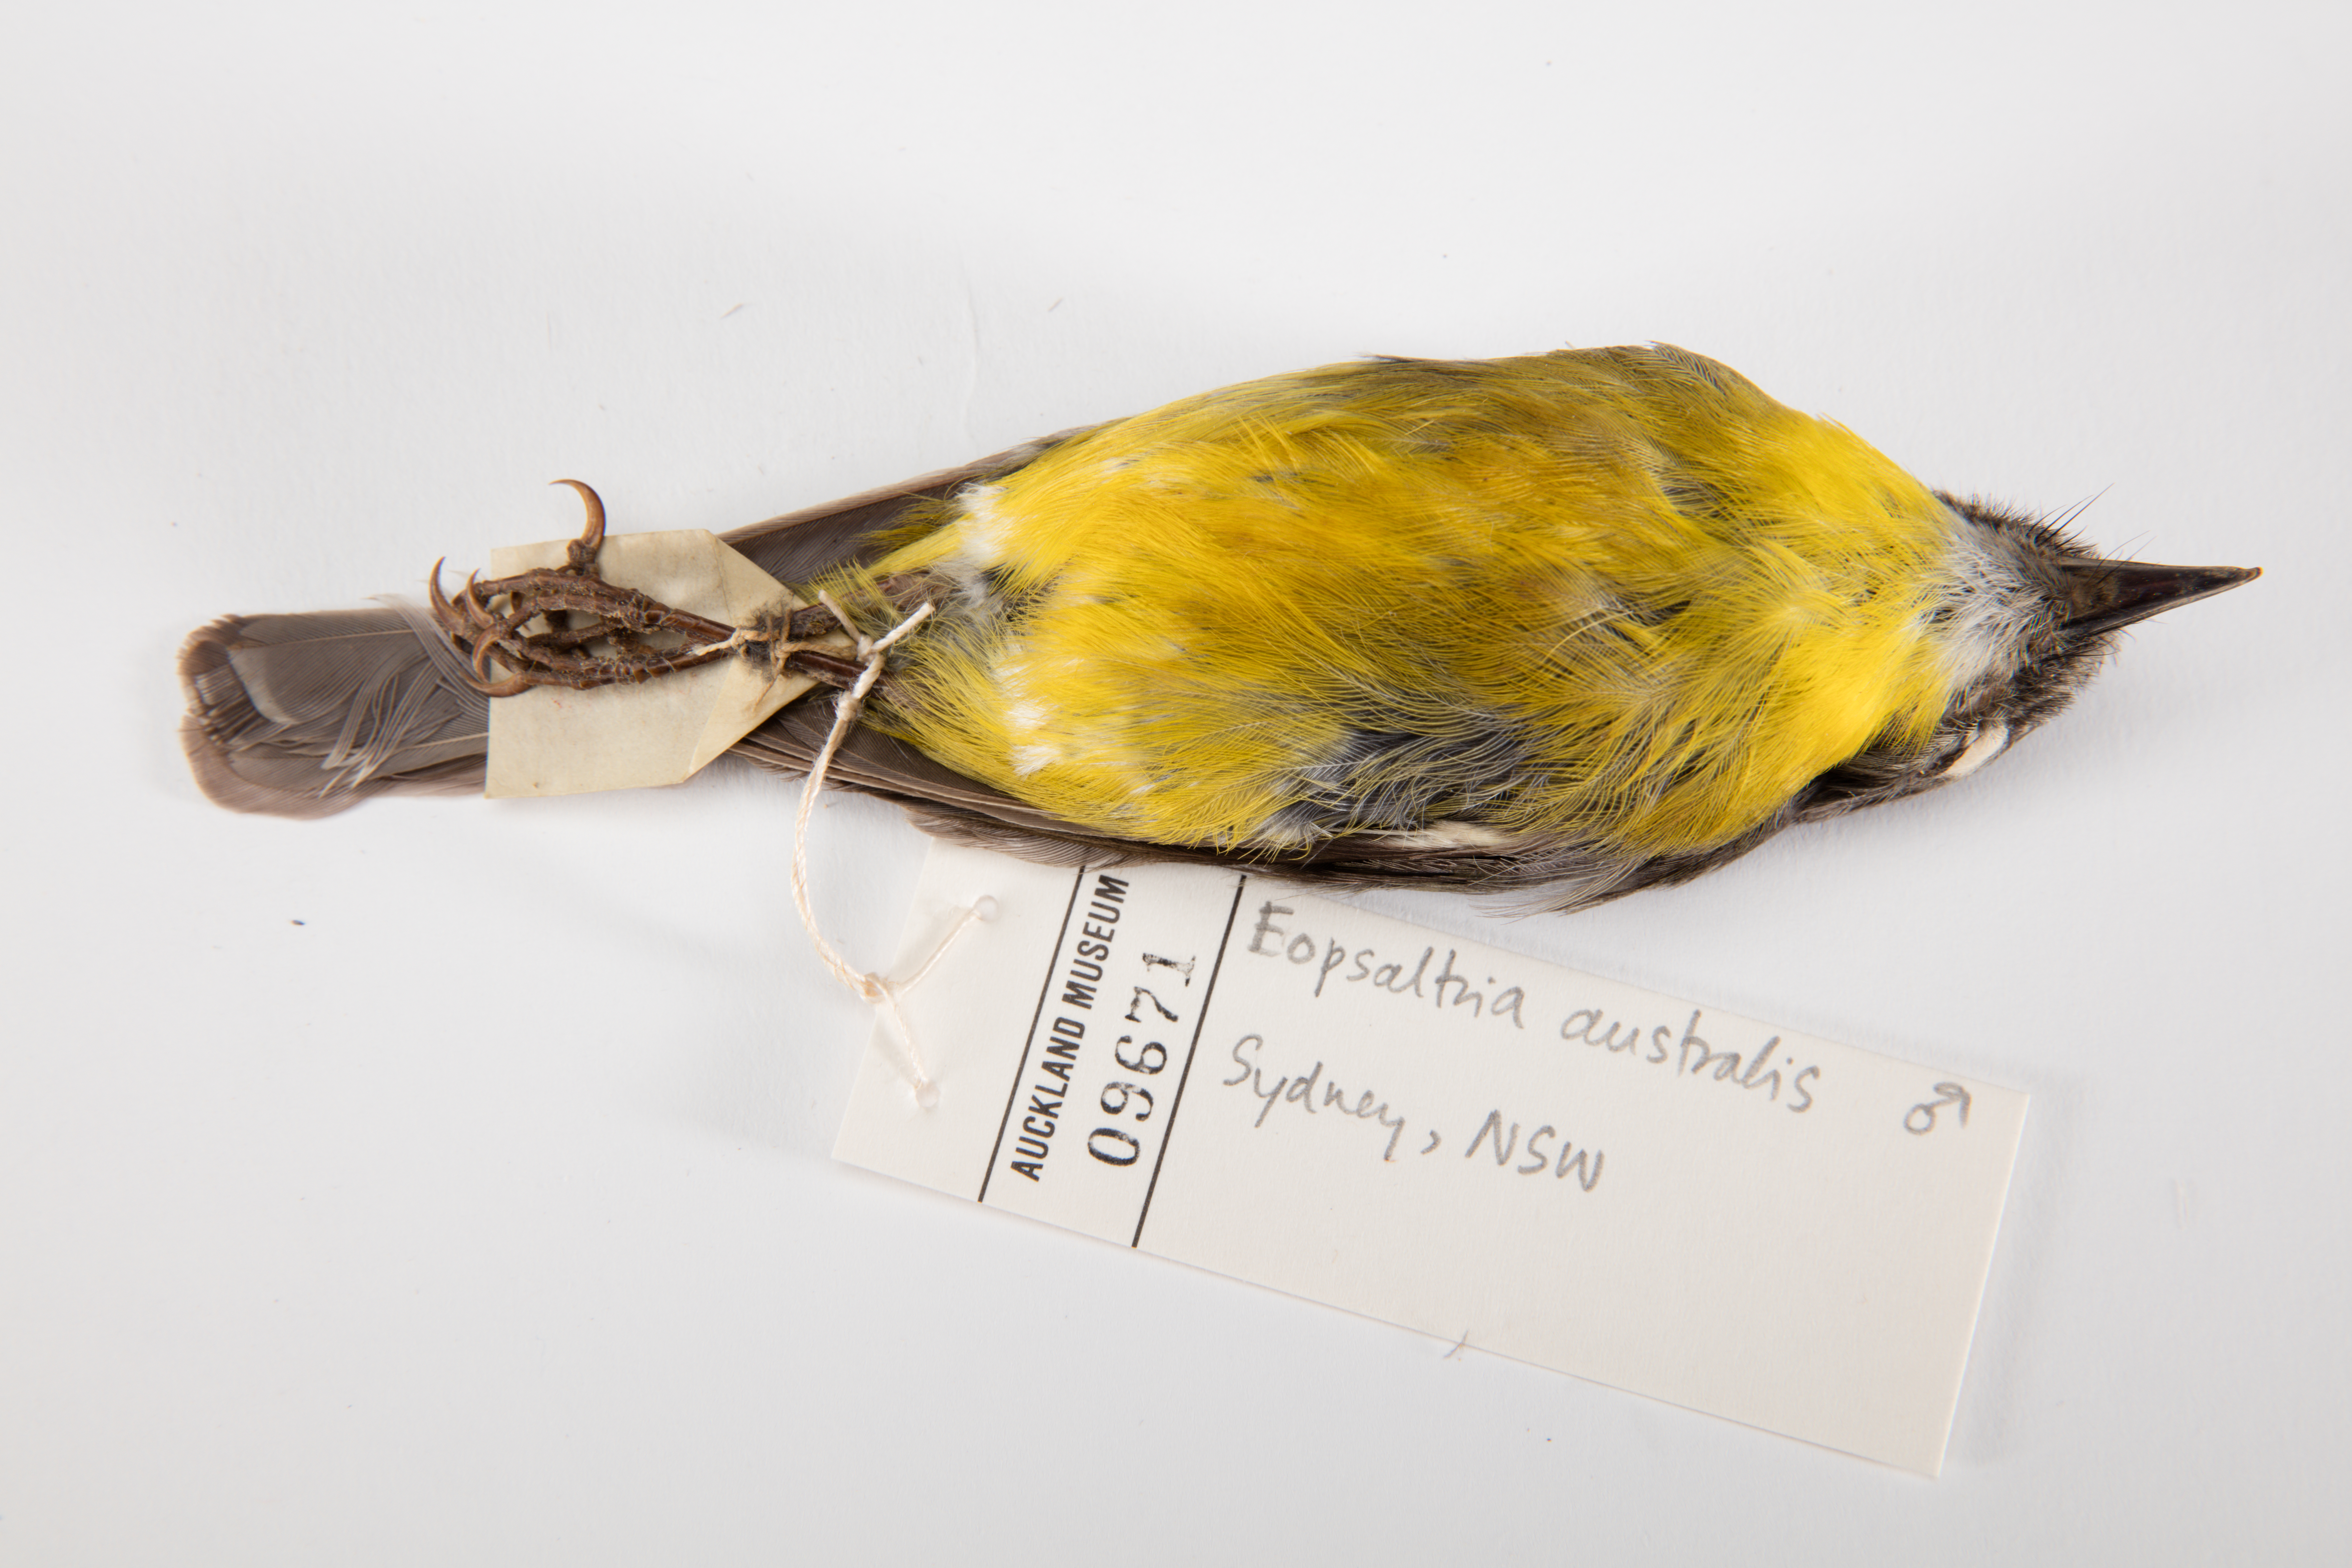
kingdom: Animalia
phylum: Chordata
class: Aves
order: Passeriformes
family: Petroicidae
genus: Eopsaltria
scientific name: Eopsaltria australis
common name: Eastern yellow robin
